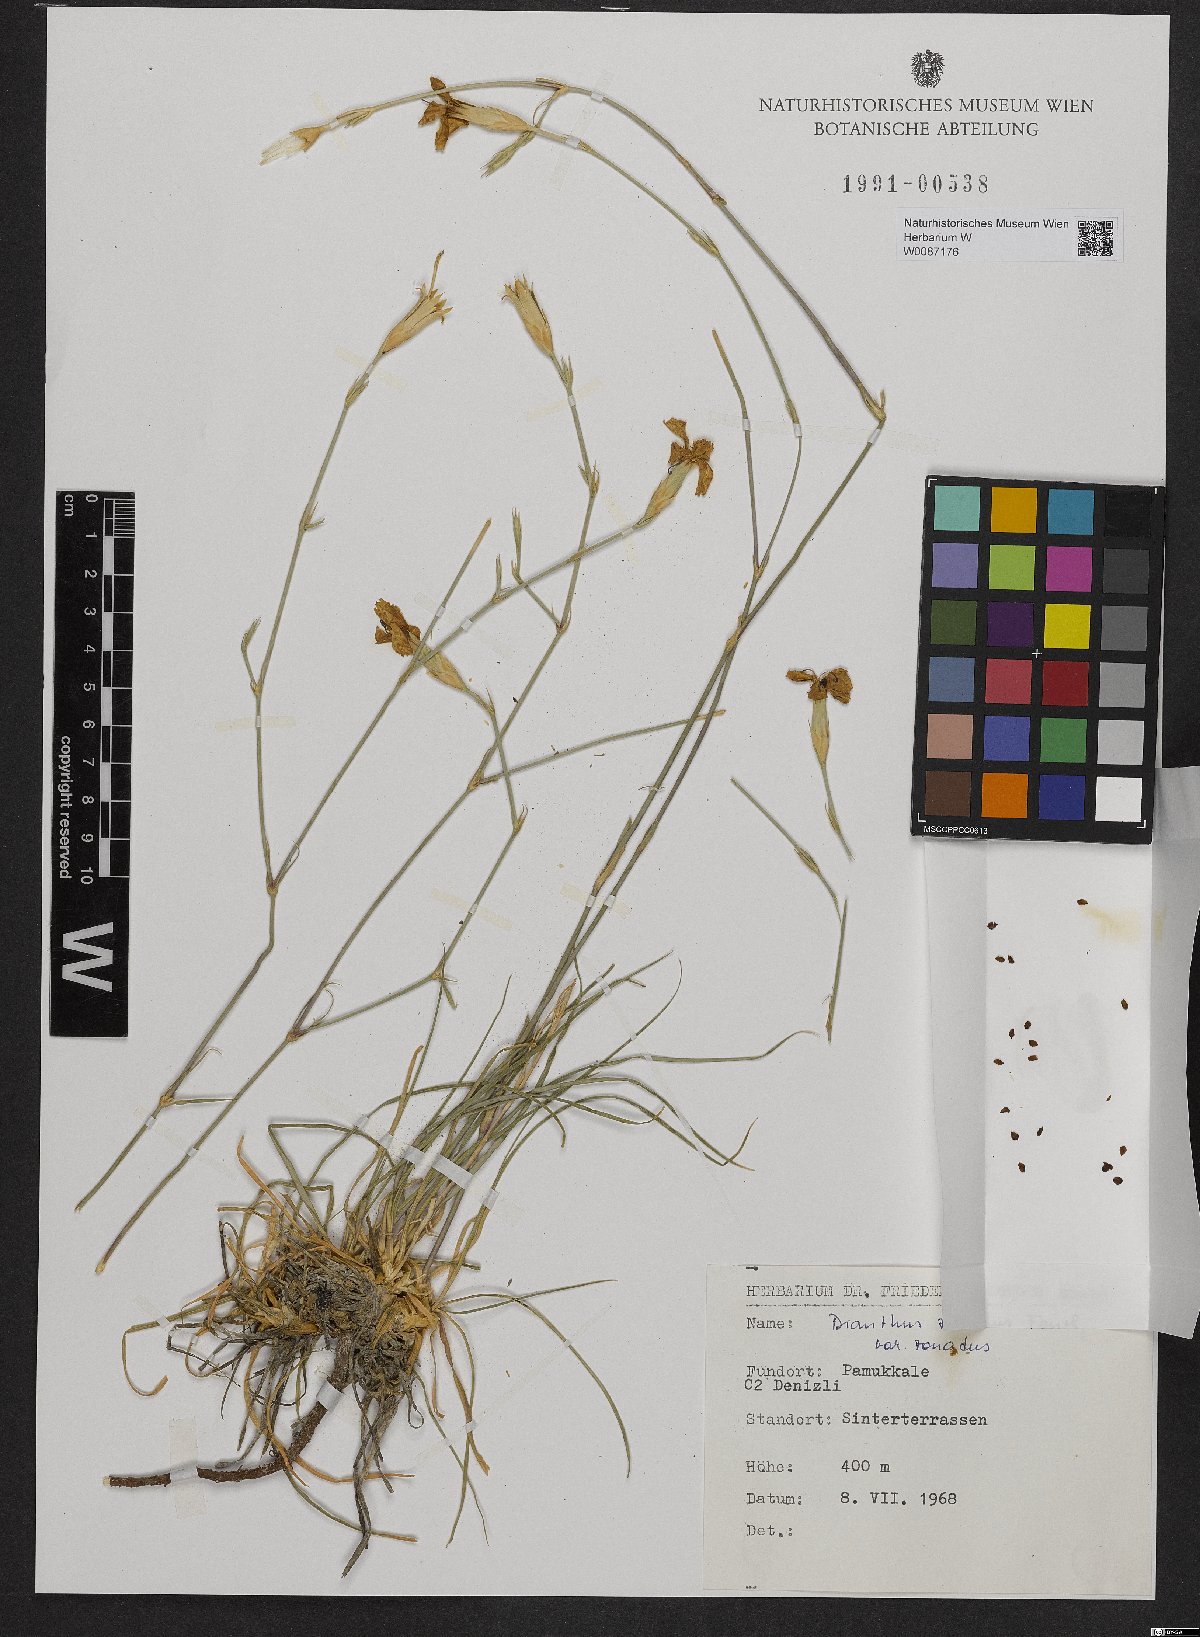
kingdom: Plantae
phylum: Tracheophyta
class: Magnoliopsida
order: Caryophyllales
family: Caryophyllaceae
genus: Dianthus
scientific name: Dianthus zonatus
